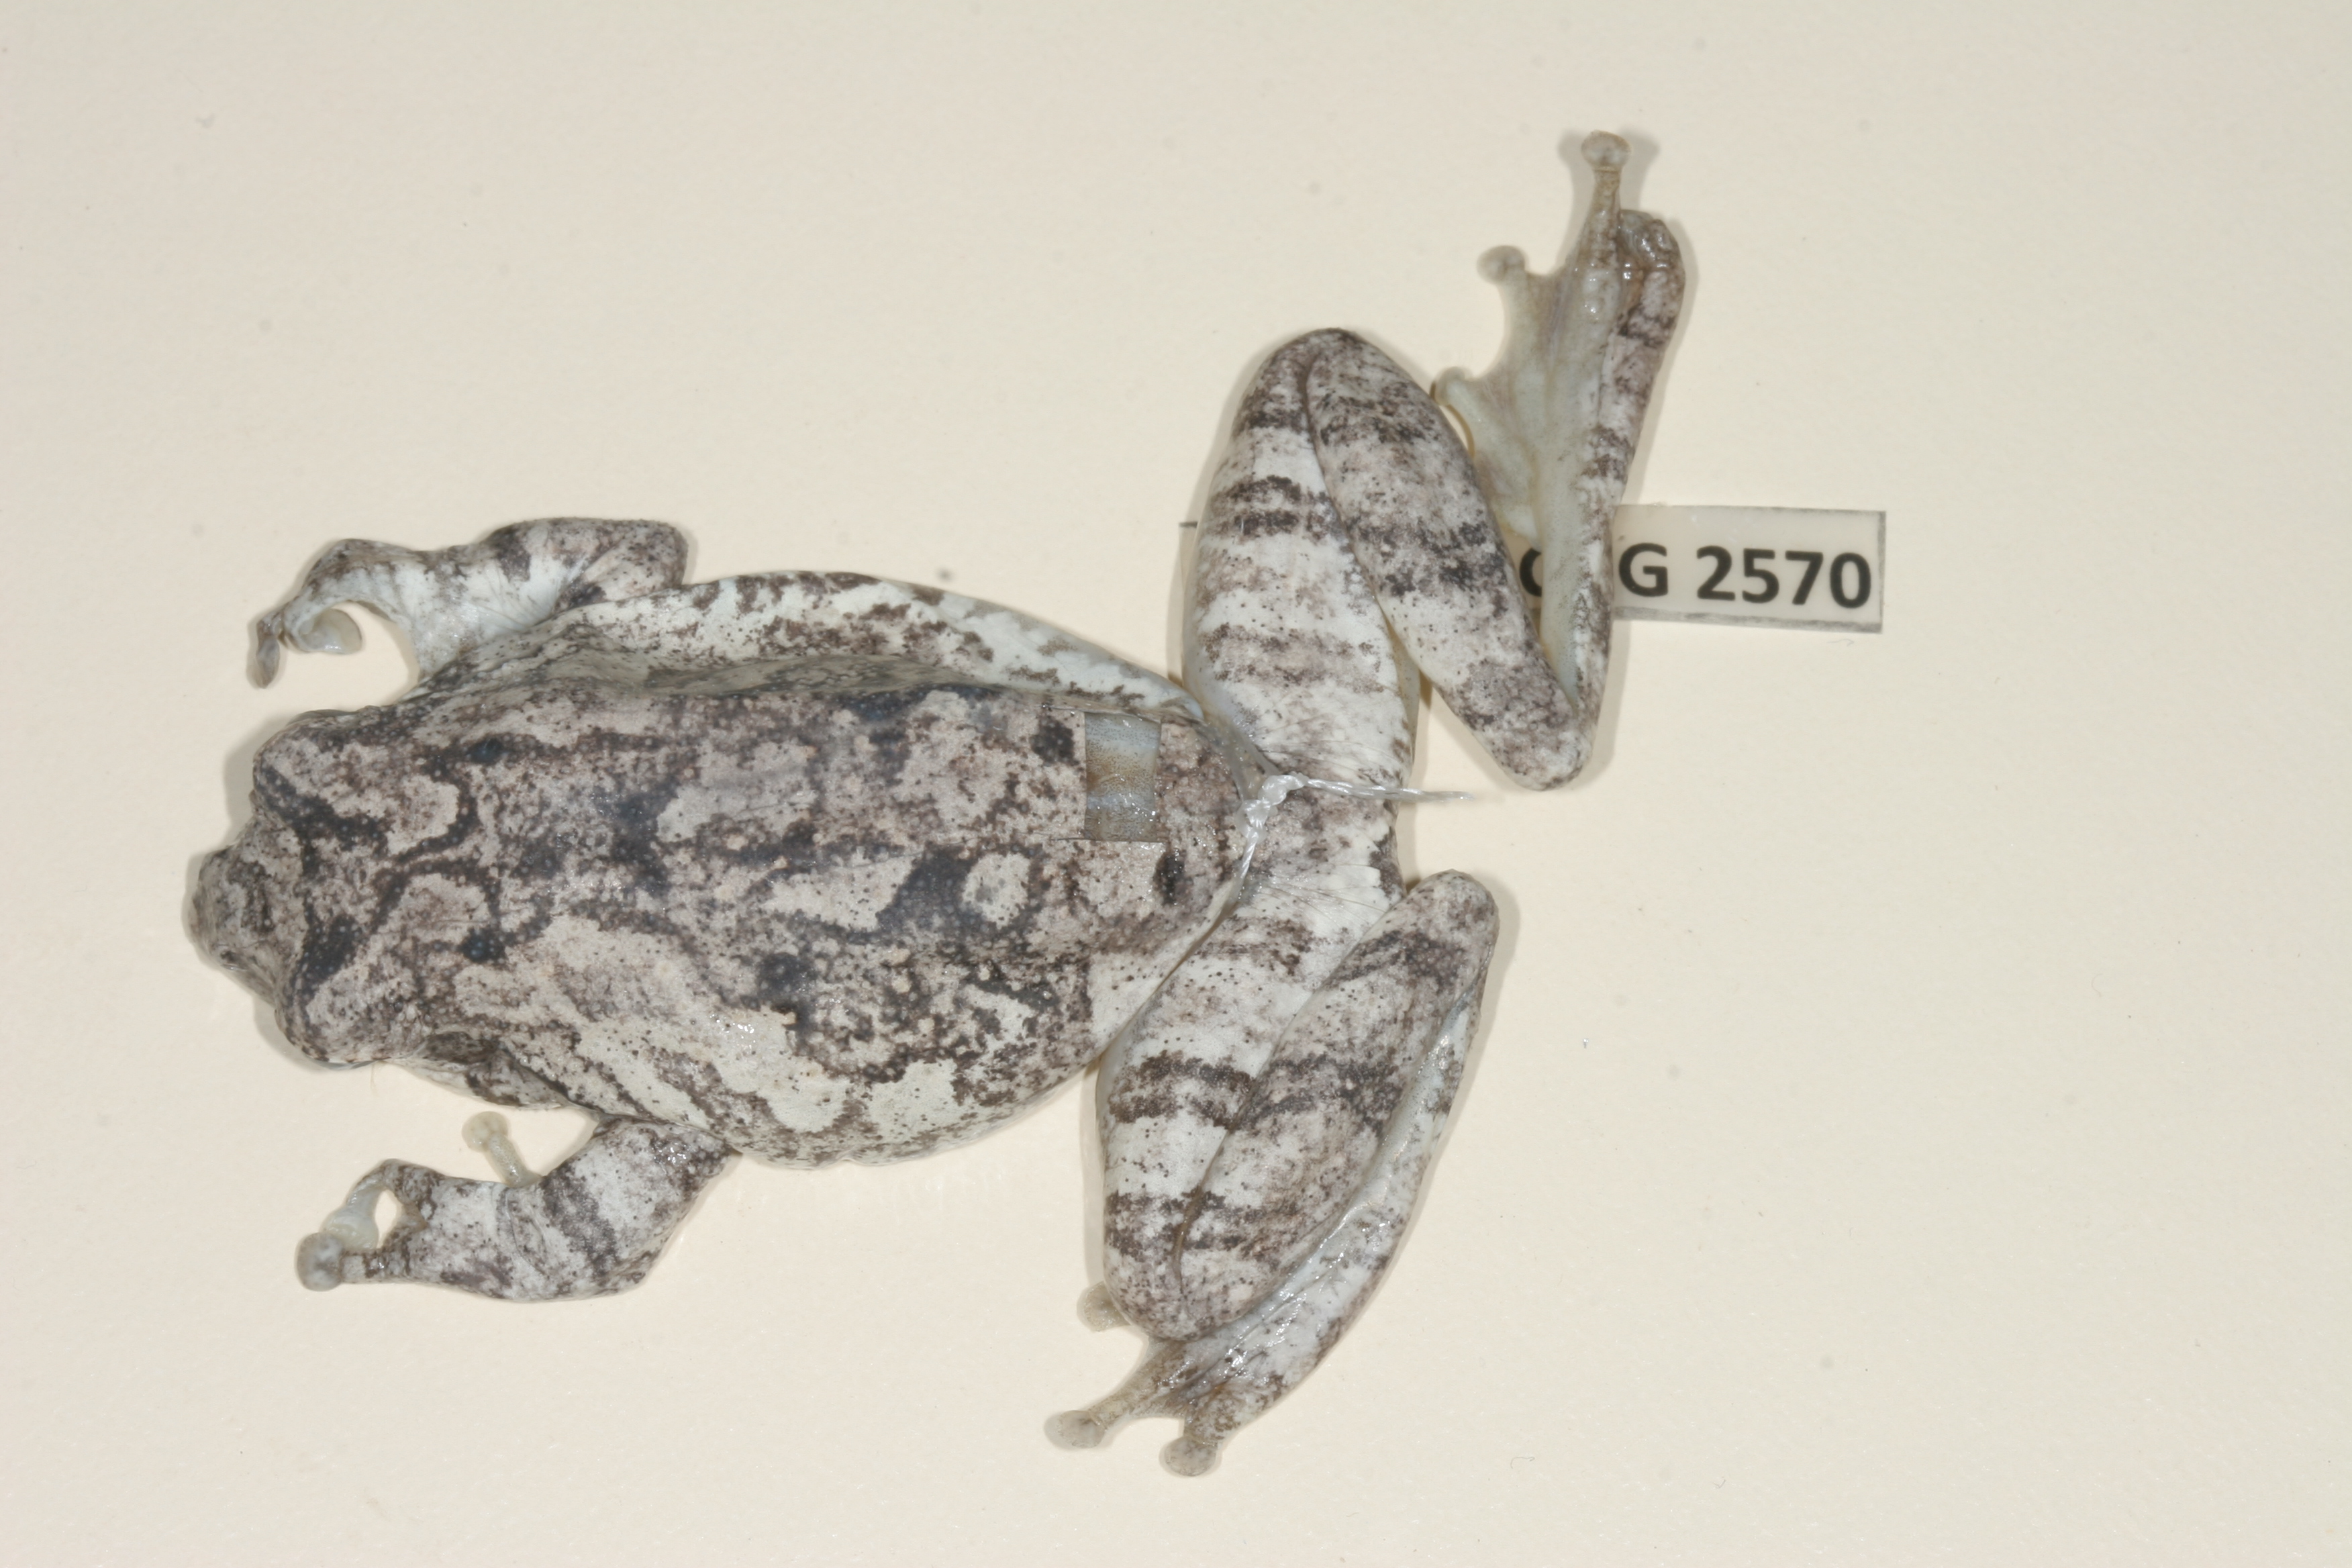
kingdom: Animalia
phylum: Chordata
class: Amphibia
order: Anura
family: Rhacophoridae
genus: Chiromantis
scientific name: Chiromantis xerampelina
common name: African gray treefrog
